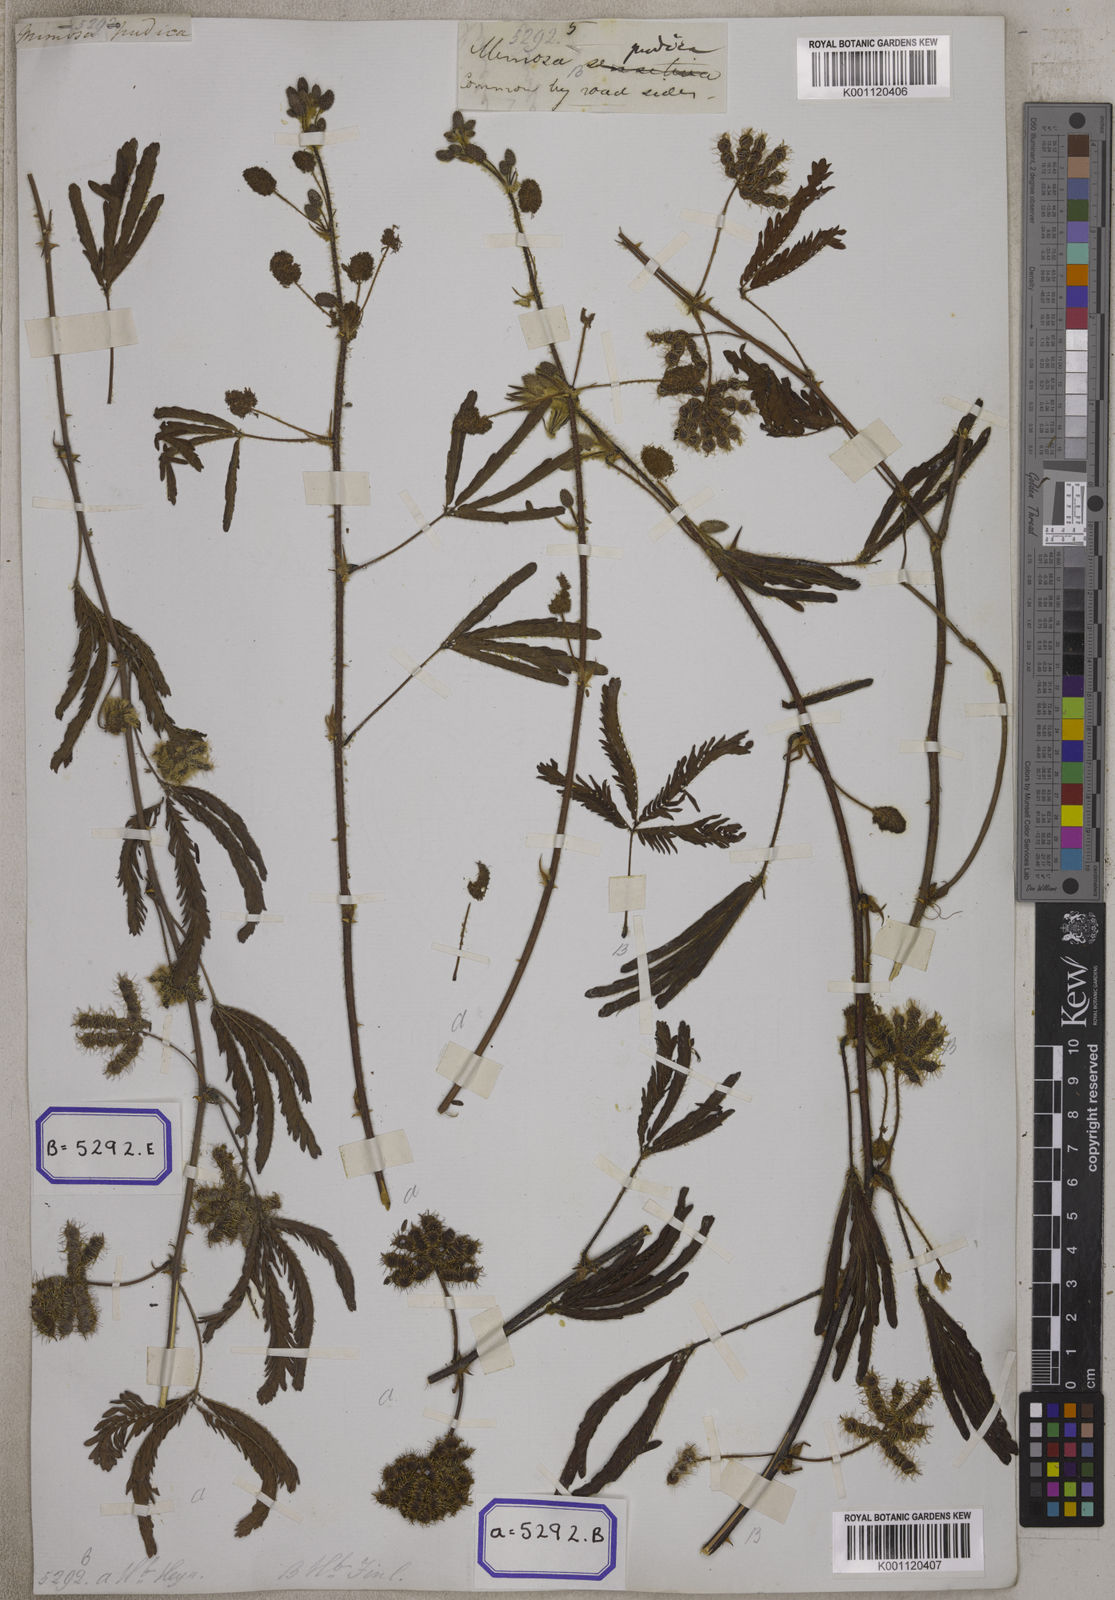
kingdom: Plantae
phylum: Tracheophyta
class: Magnoliopsida
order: Fabales
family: Fabaceae
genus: Mimosa
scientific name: Mimosa pudica
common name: Sensitive plant
